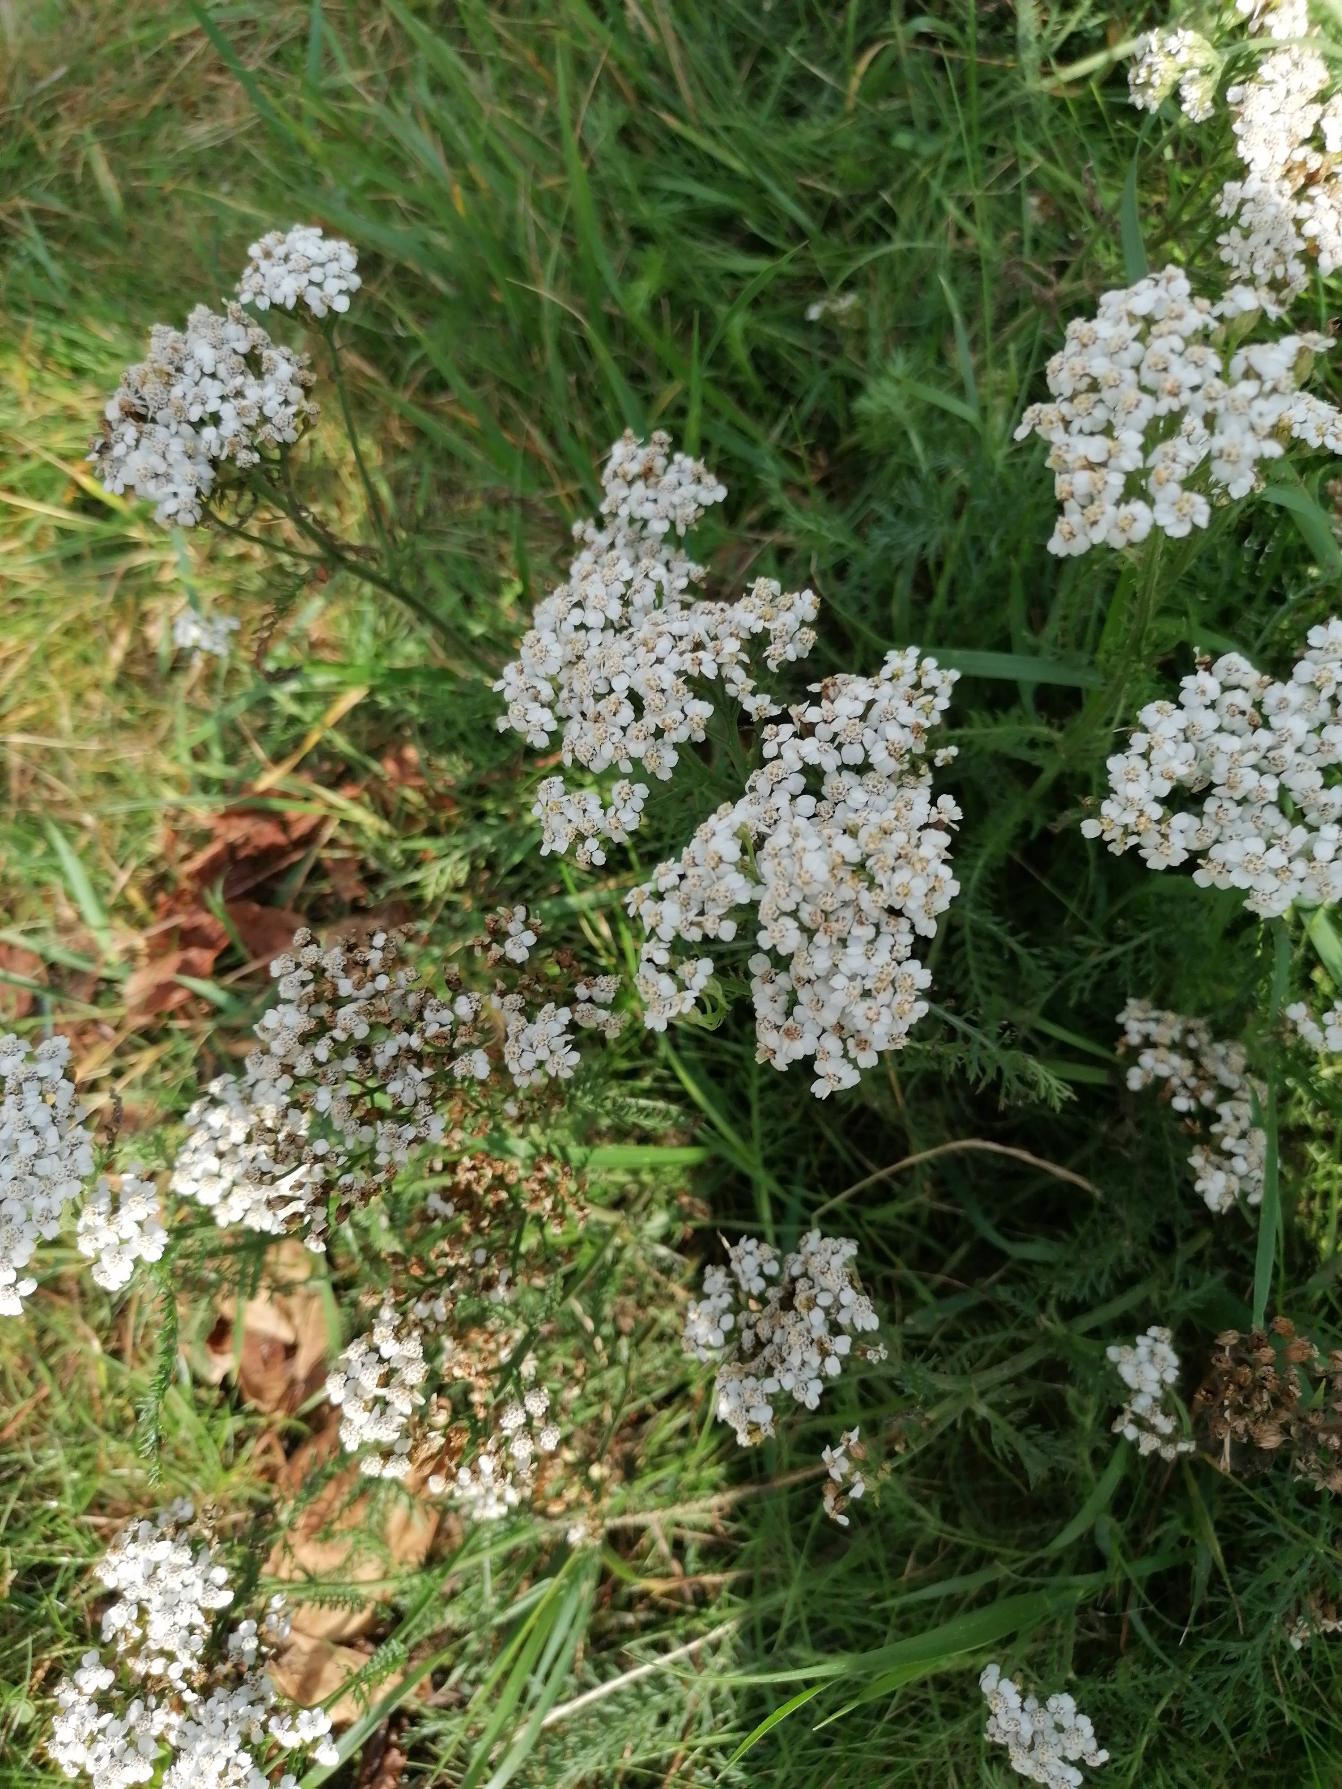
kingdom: Plantae
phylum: Tracheophyta
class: Magnoliopsida
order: Asterales
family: Asteraceae
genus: Achillea
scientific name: Achillea millefolium
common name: Almindelig røllike
